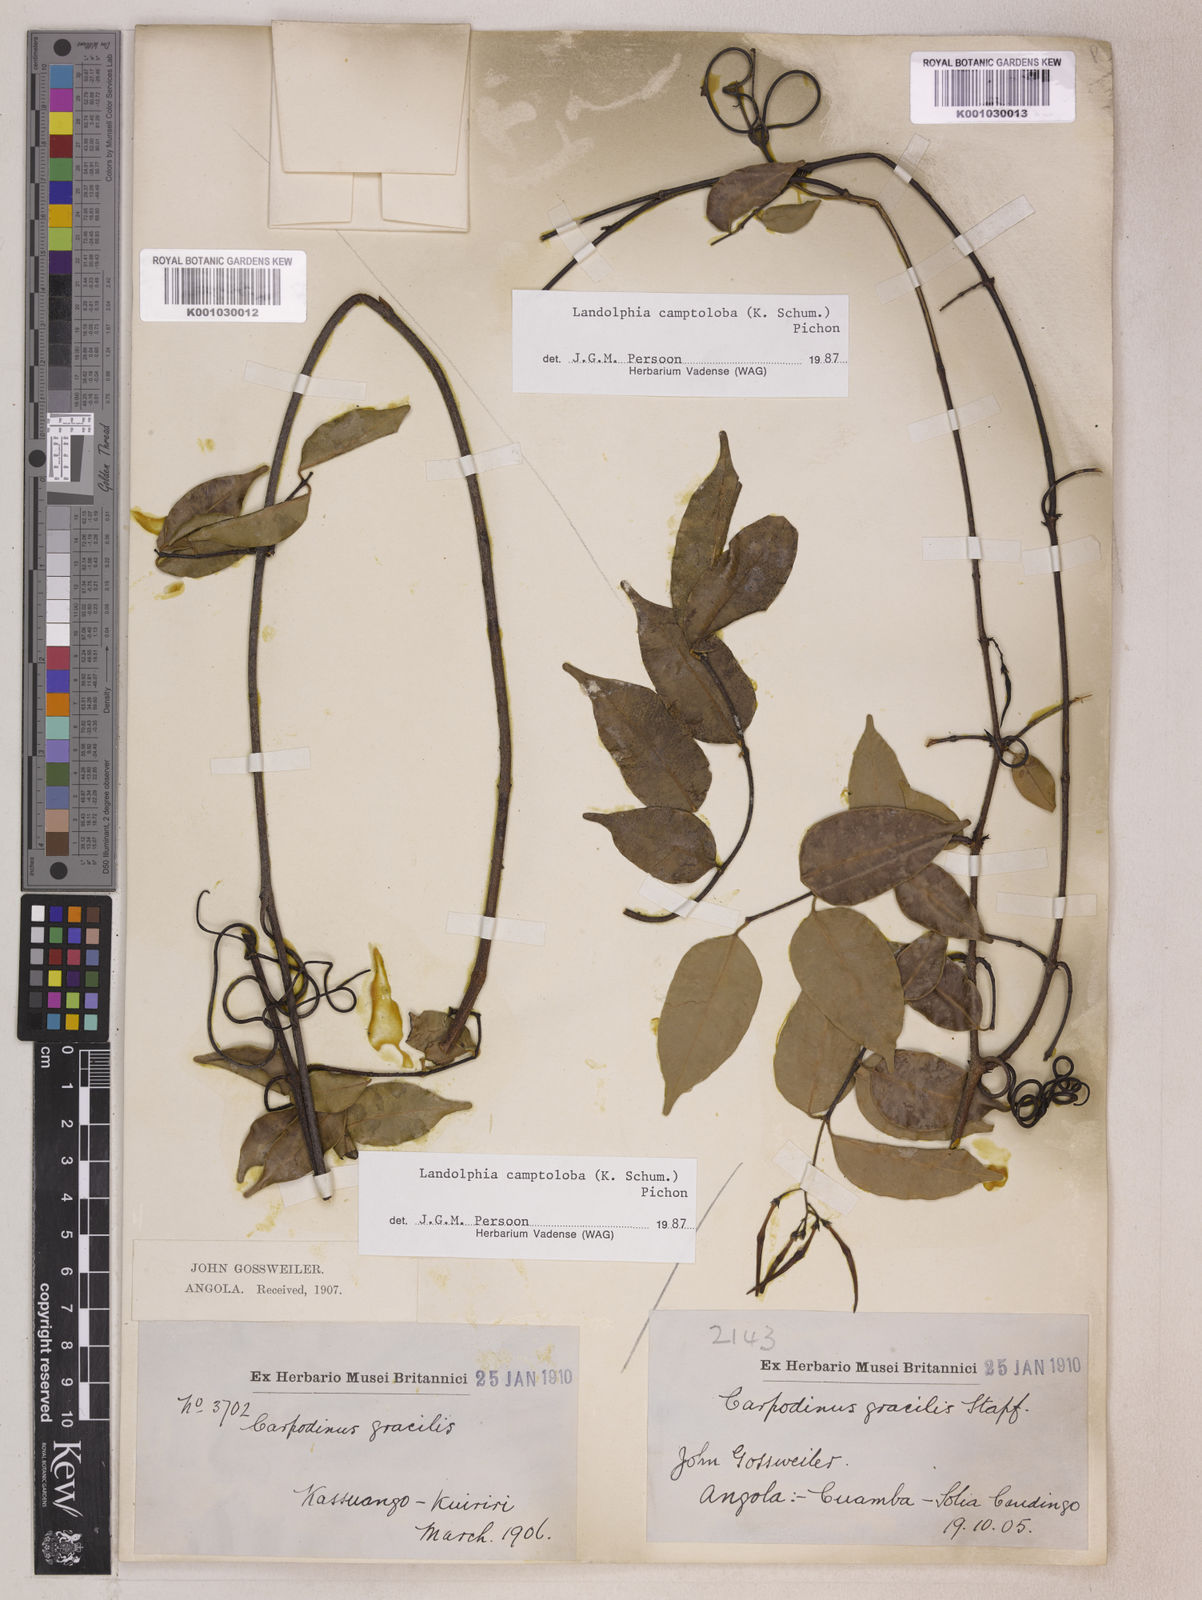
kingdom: Plantae
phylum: Tracheophyta
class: Magnoliopsida
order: Gentianales
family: Apocynaceae
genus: Landolphia
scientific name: Landolphia camptoloba
